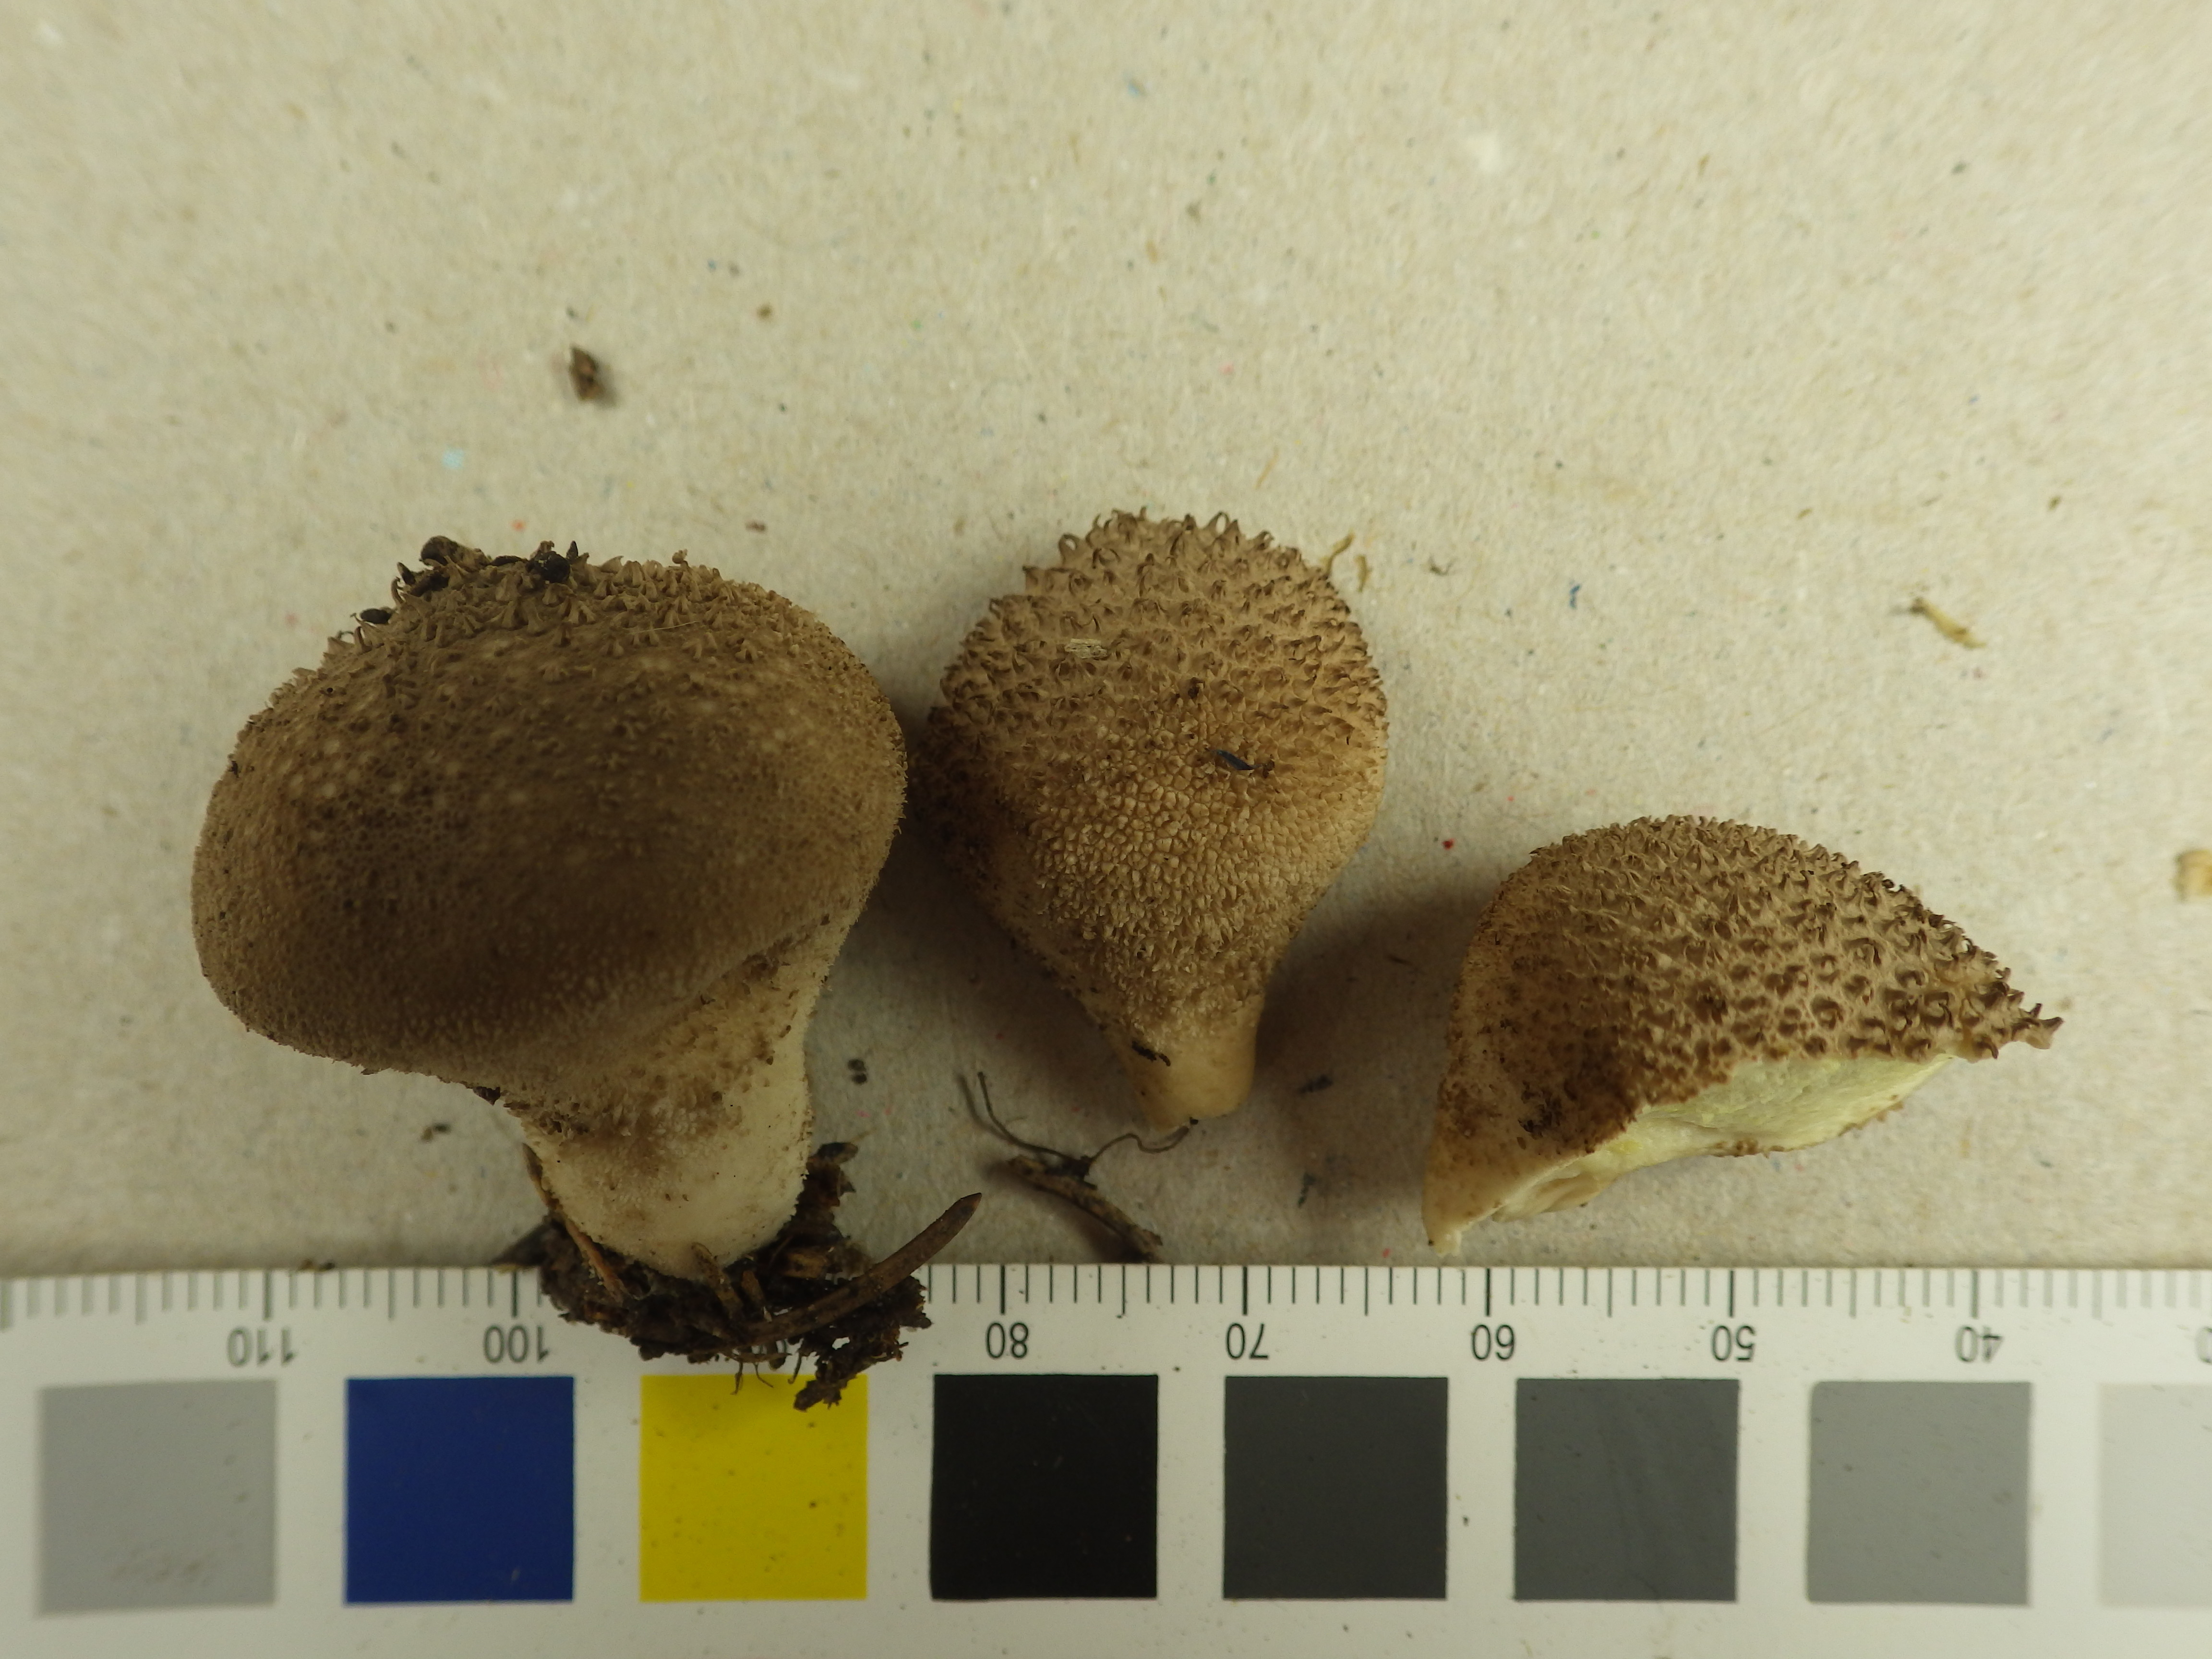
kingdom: Fungi
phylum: Basidiomycota
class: Agaricomycetes
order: Agaricales
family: Lycoperdaceae
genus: Lycoperdon
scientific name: Lycoperdon perlatum
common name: Common puffball
